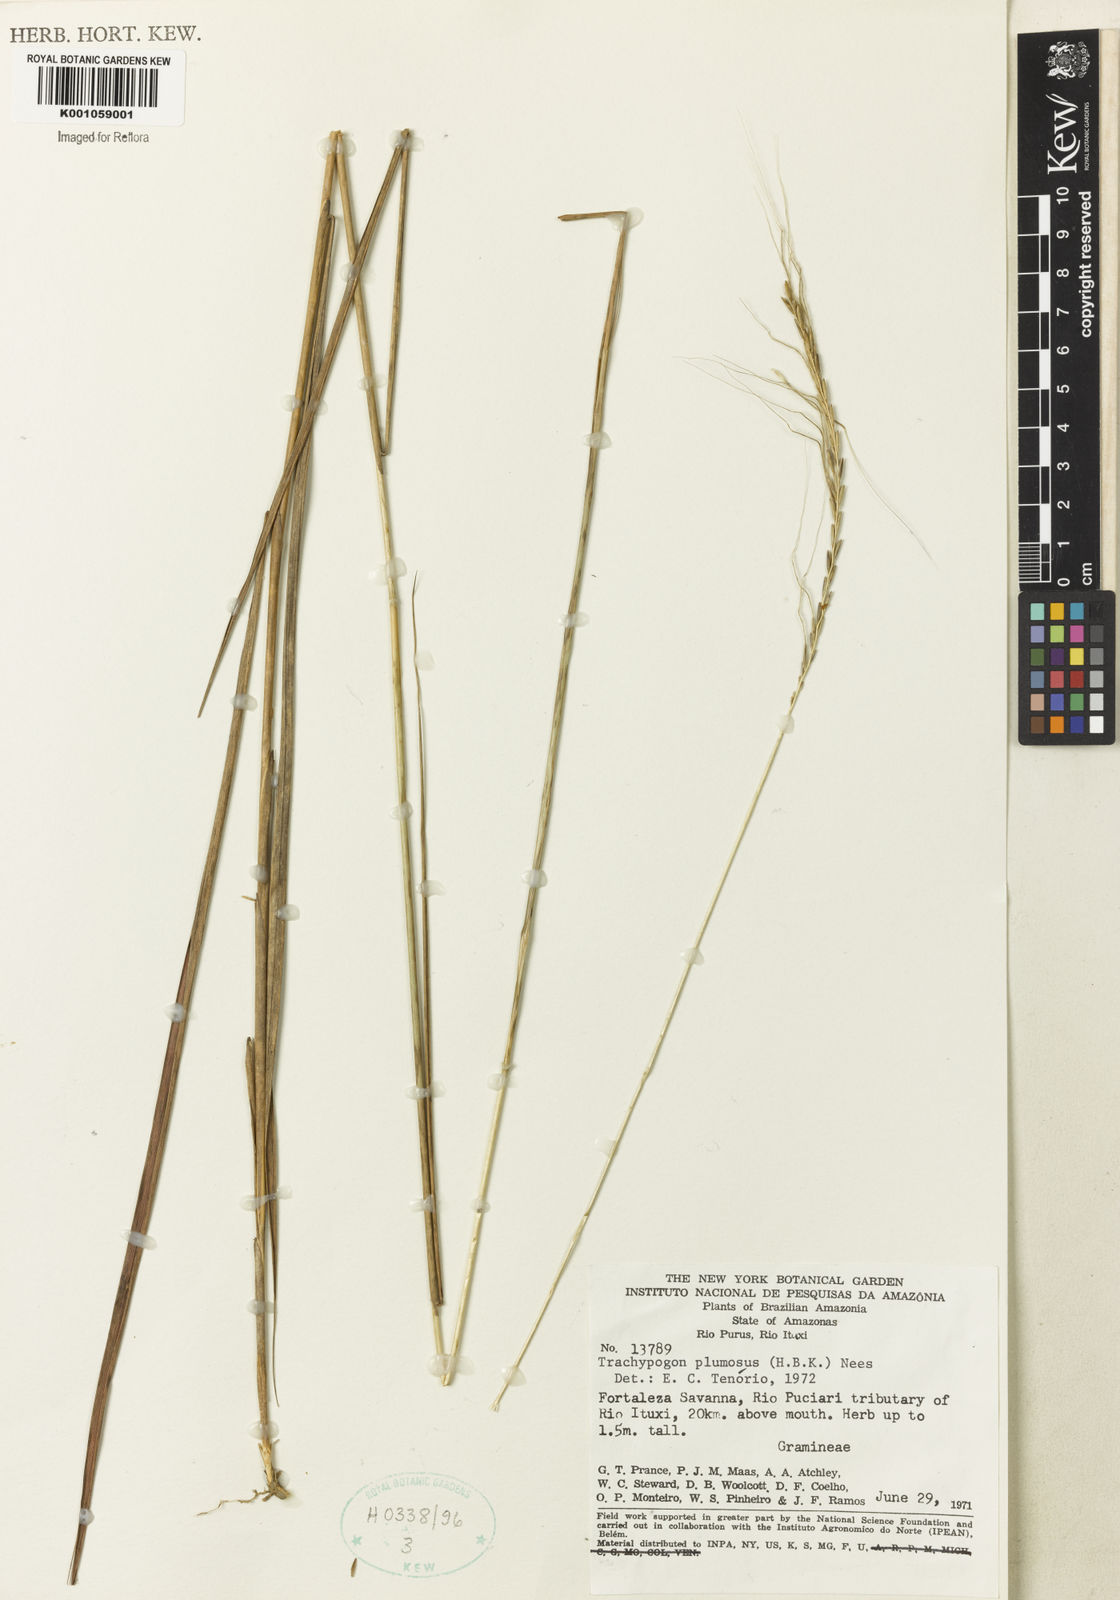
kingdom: Plantae
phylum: Tracheophyta
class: Liliopsida
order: Poales
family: Poaceae
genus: Trachypogon
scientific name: Trachypogon spicatus
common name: Crinkle-awn
